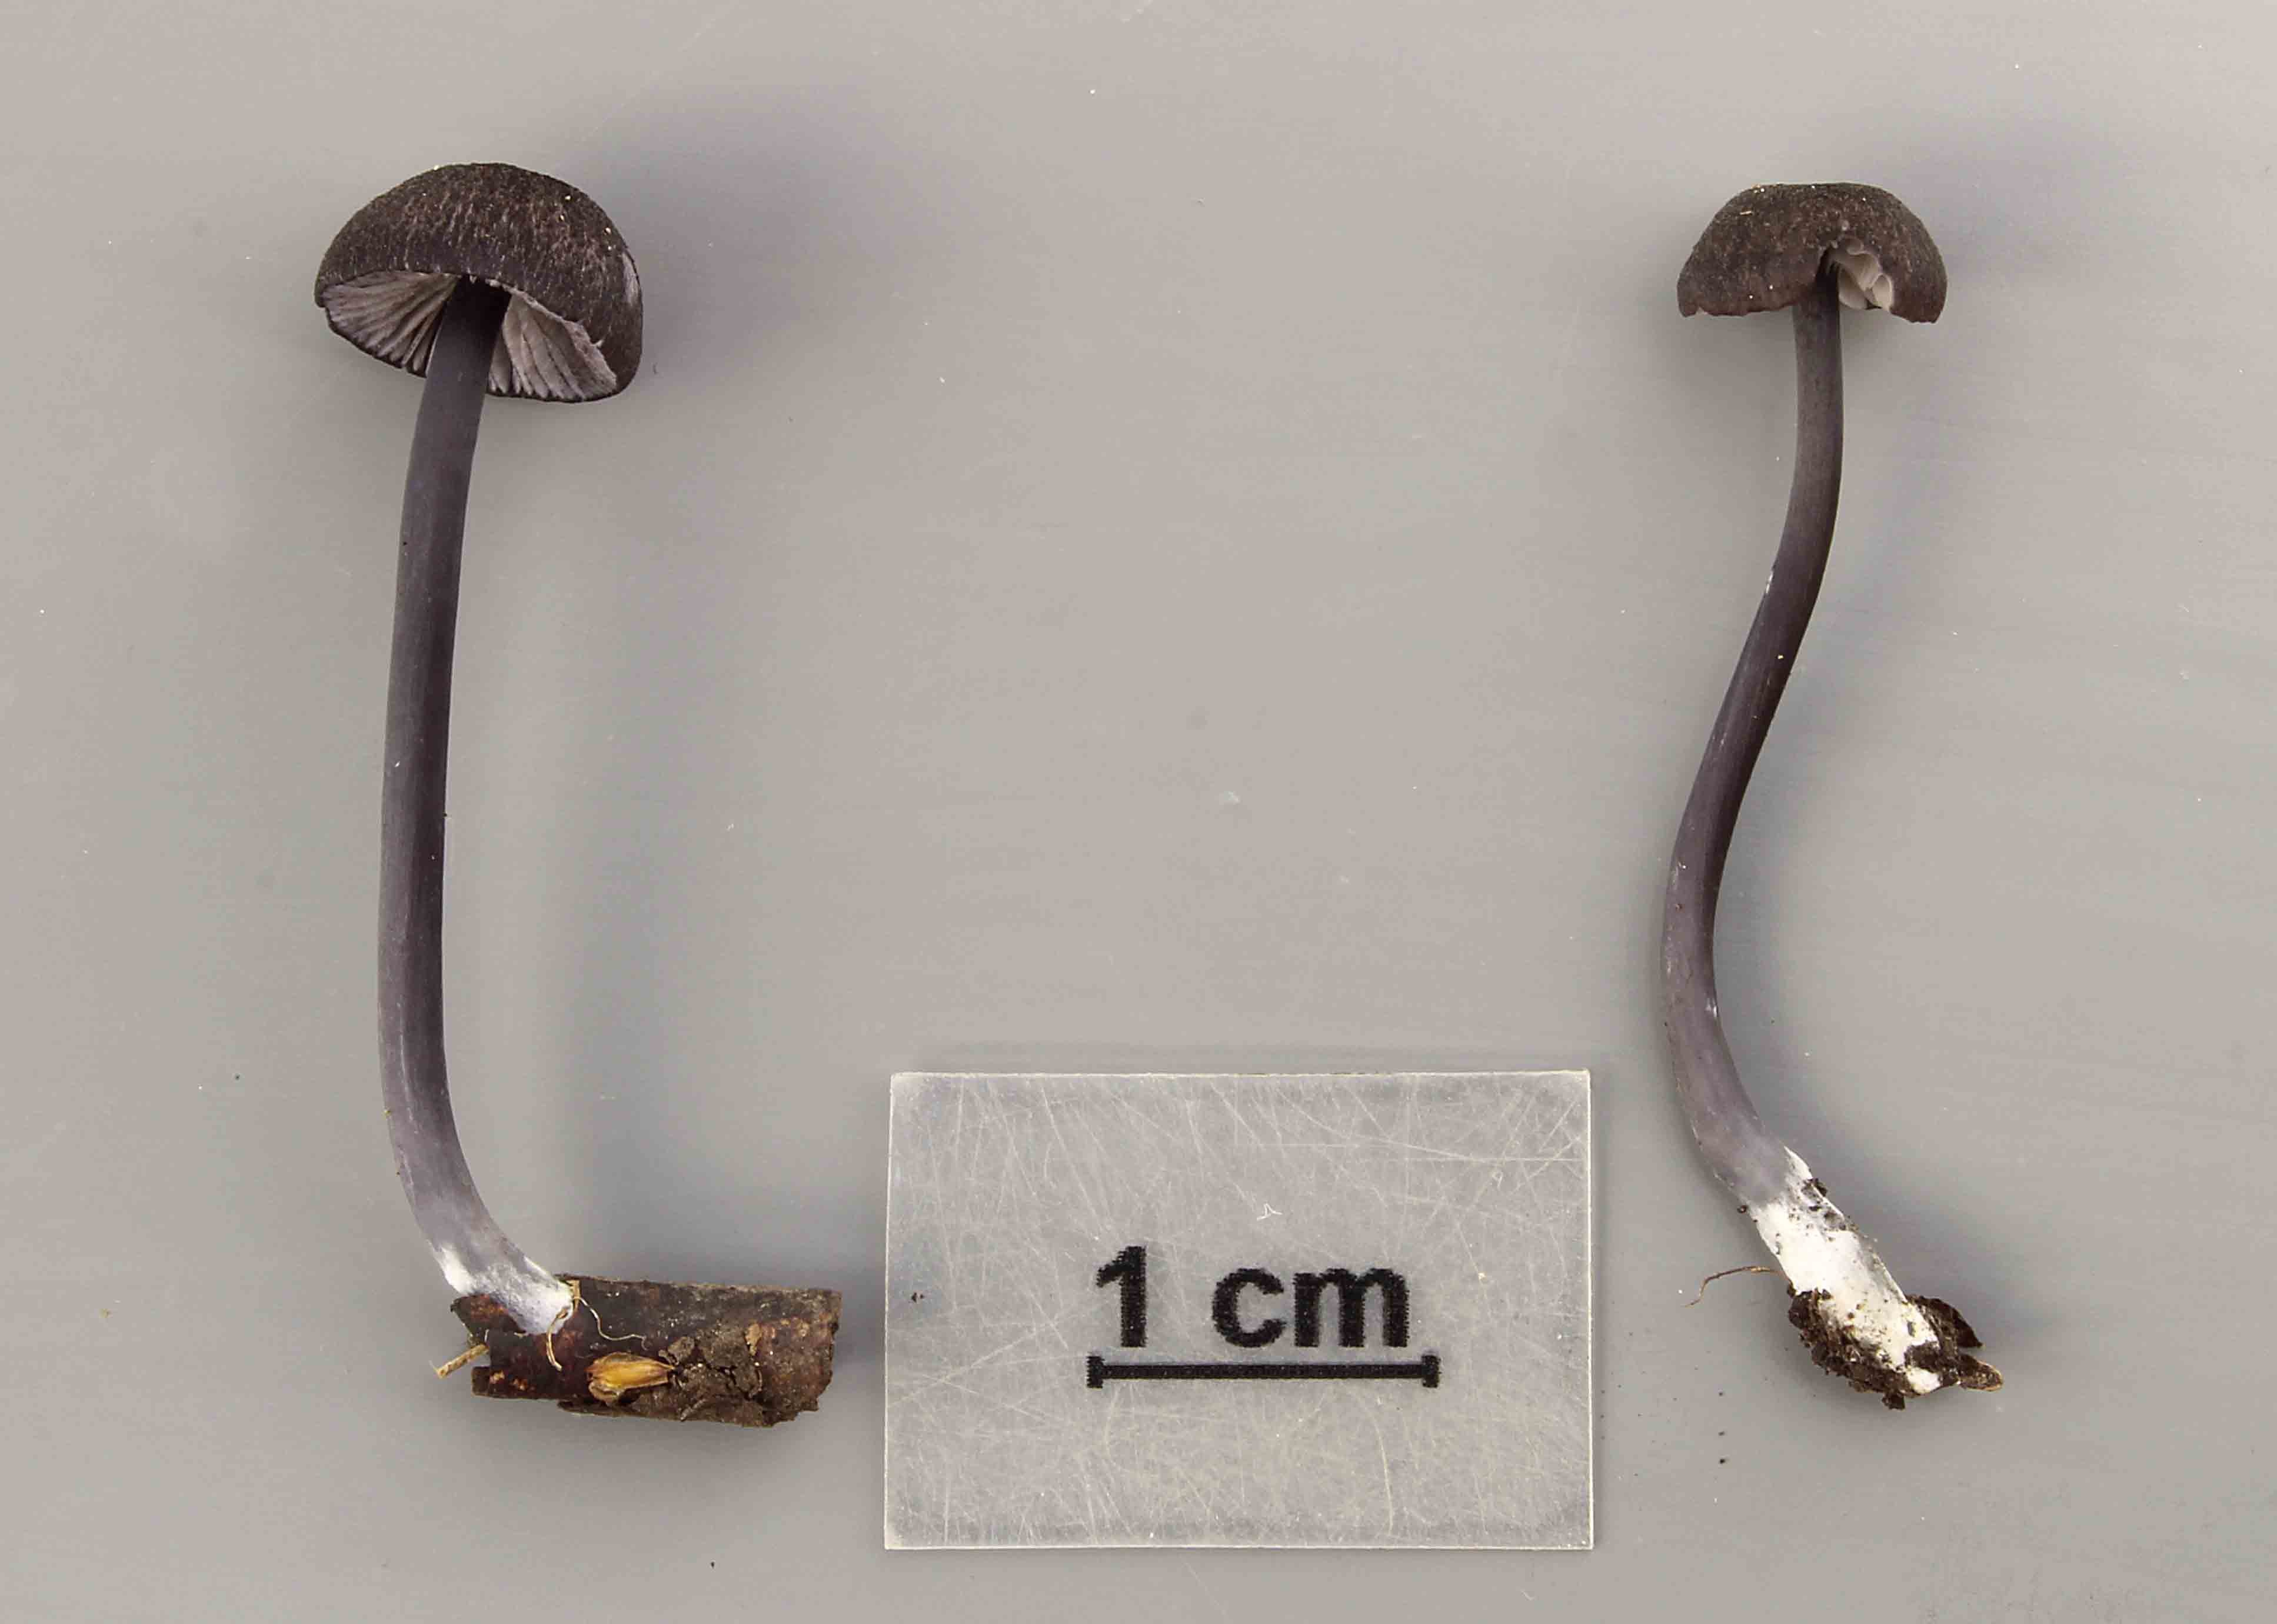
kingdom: Fungi
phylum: Basidiomycota
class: Agaricomycetes
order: Agaricales
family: Entolomataceae
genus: Entoloma
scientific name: Entoloma chalybeum
